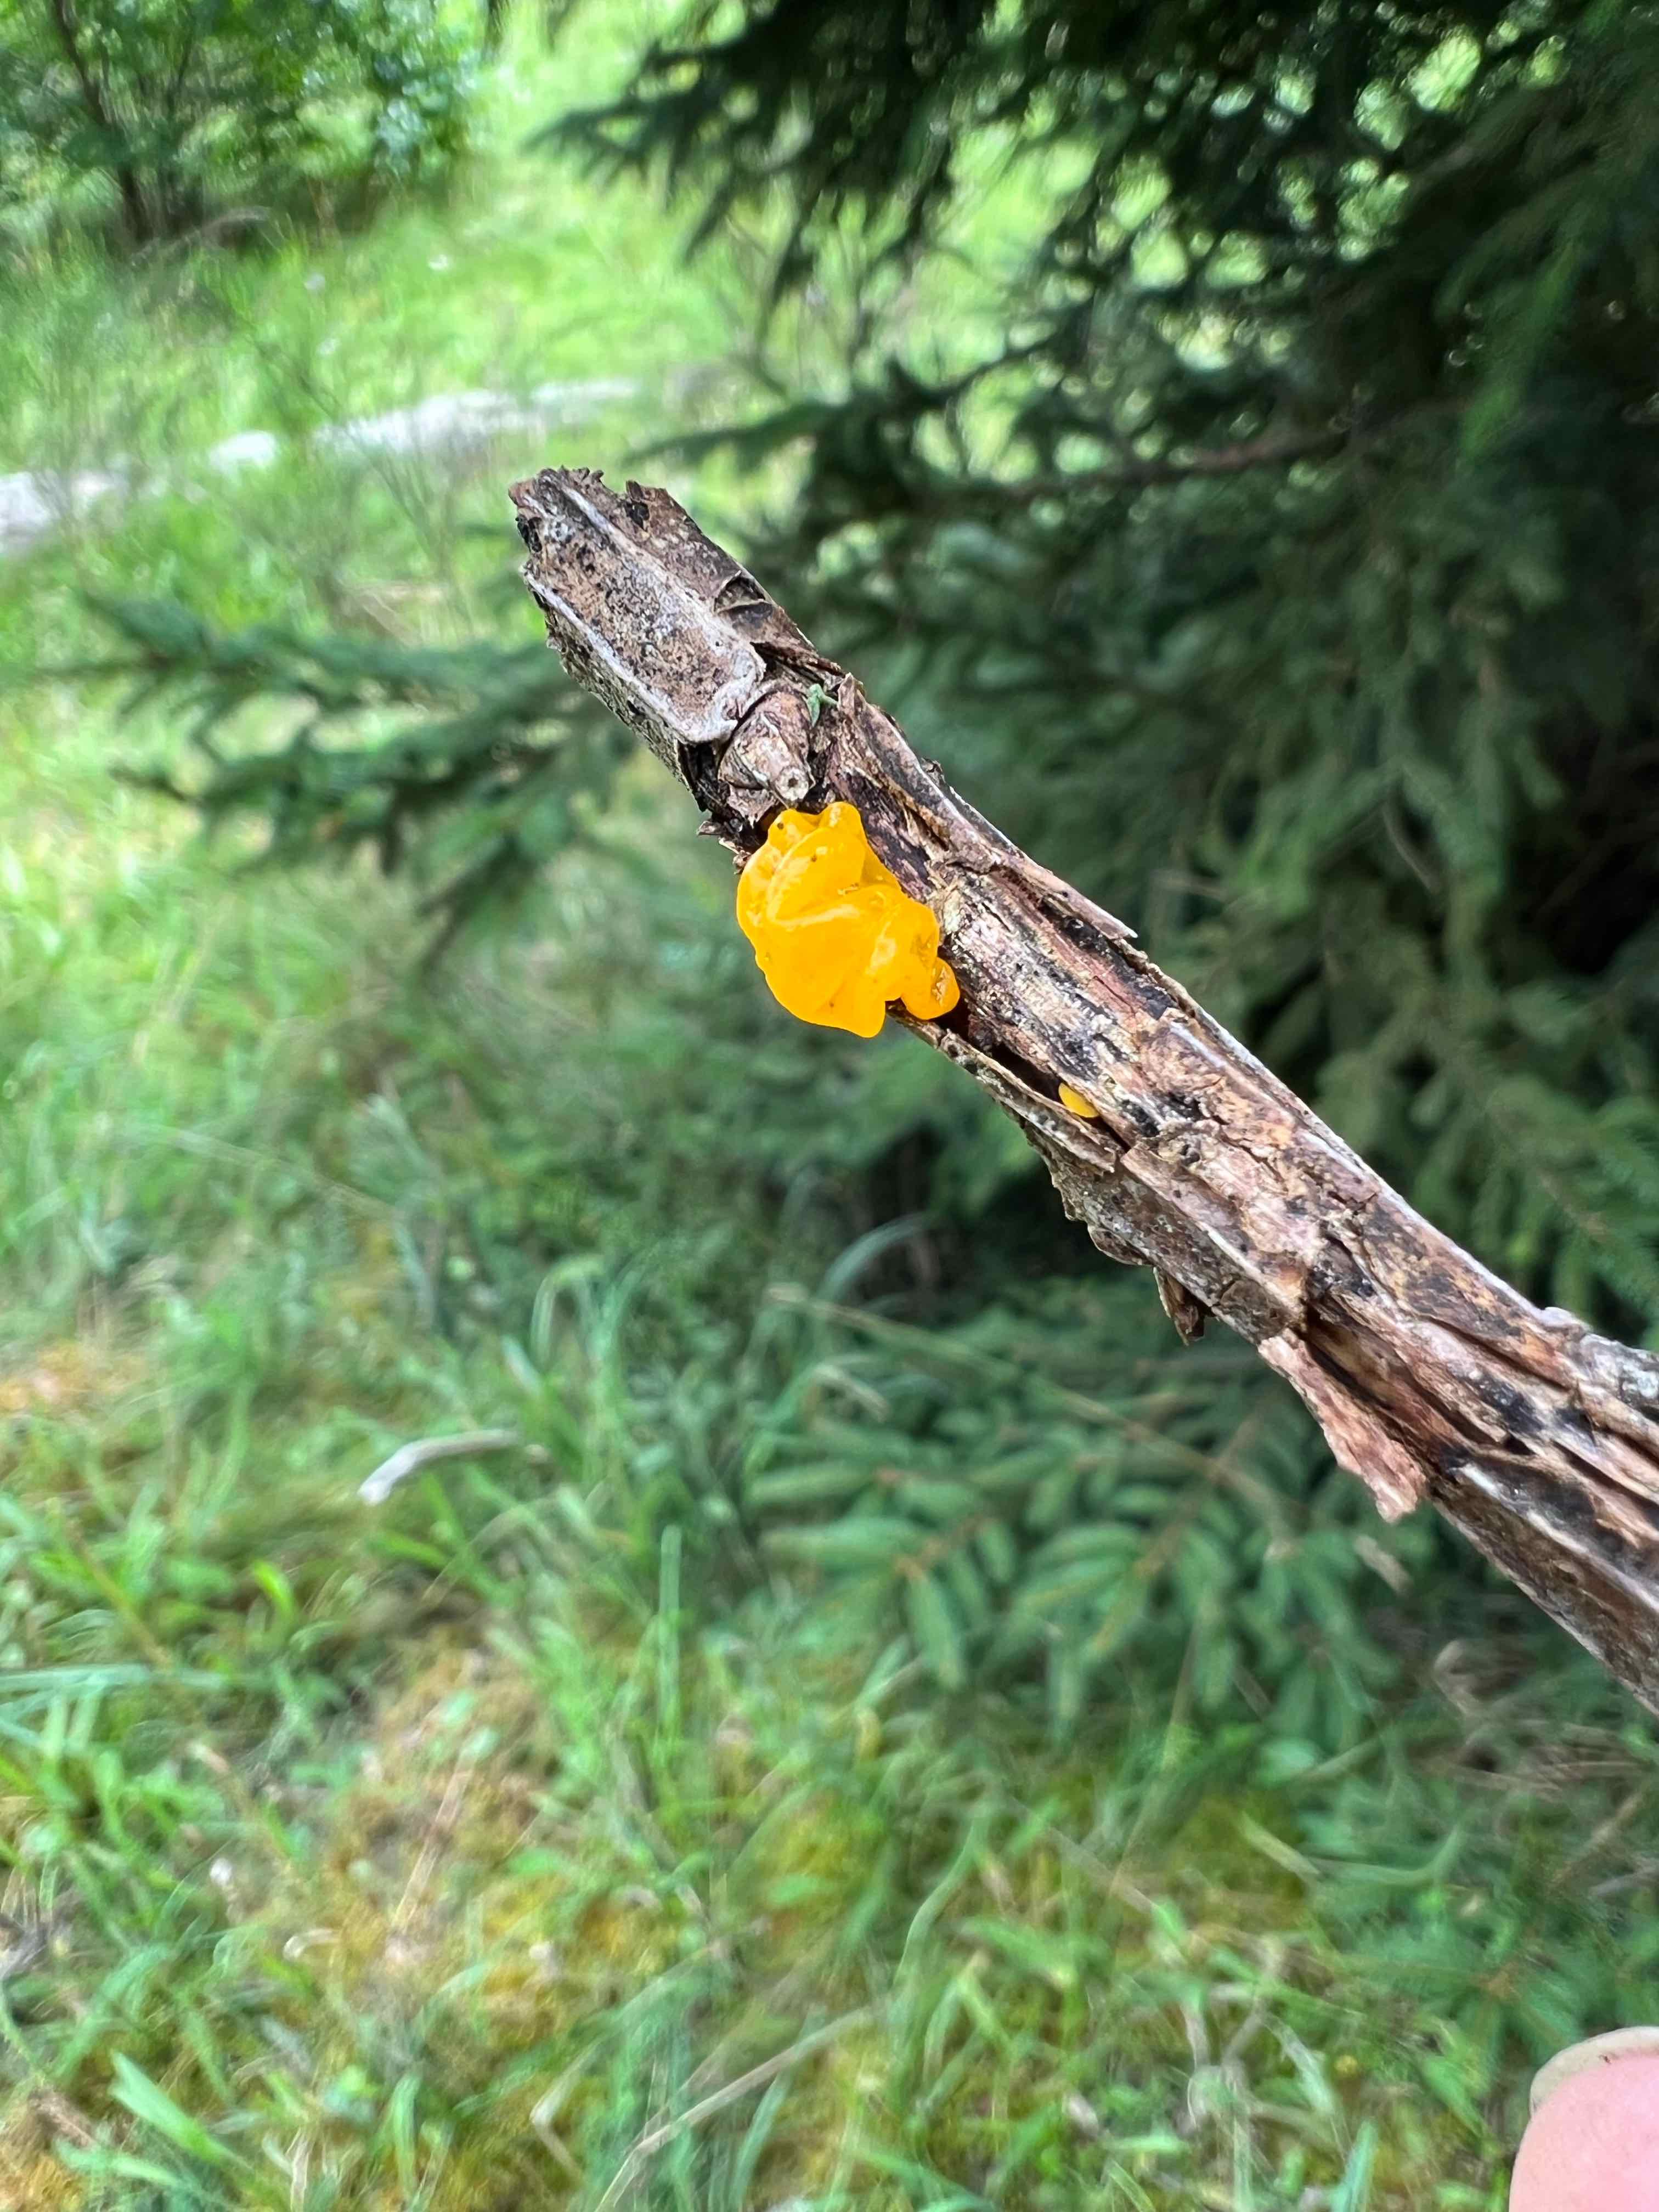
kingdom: Fungi
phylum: Basidiomycota
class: Tremellomycetes
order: Tremellales
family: Tremellaceae
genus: Tremella
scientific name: Tremella mesenterica
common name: gul bævresvamp
